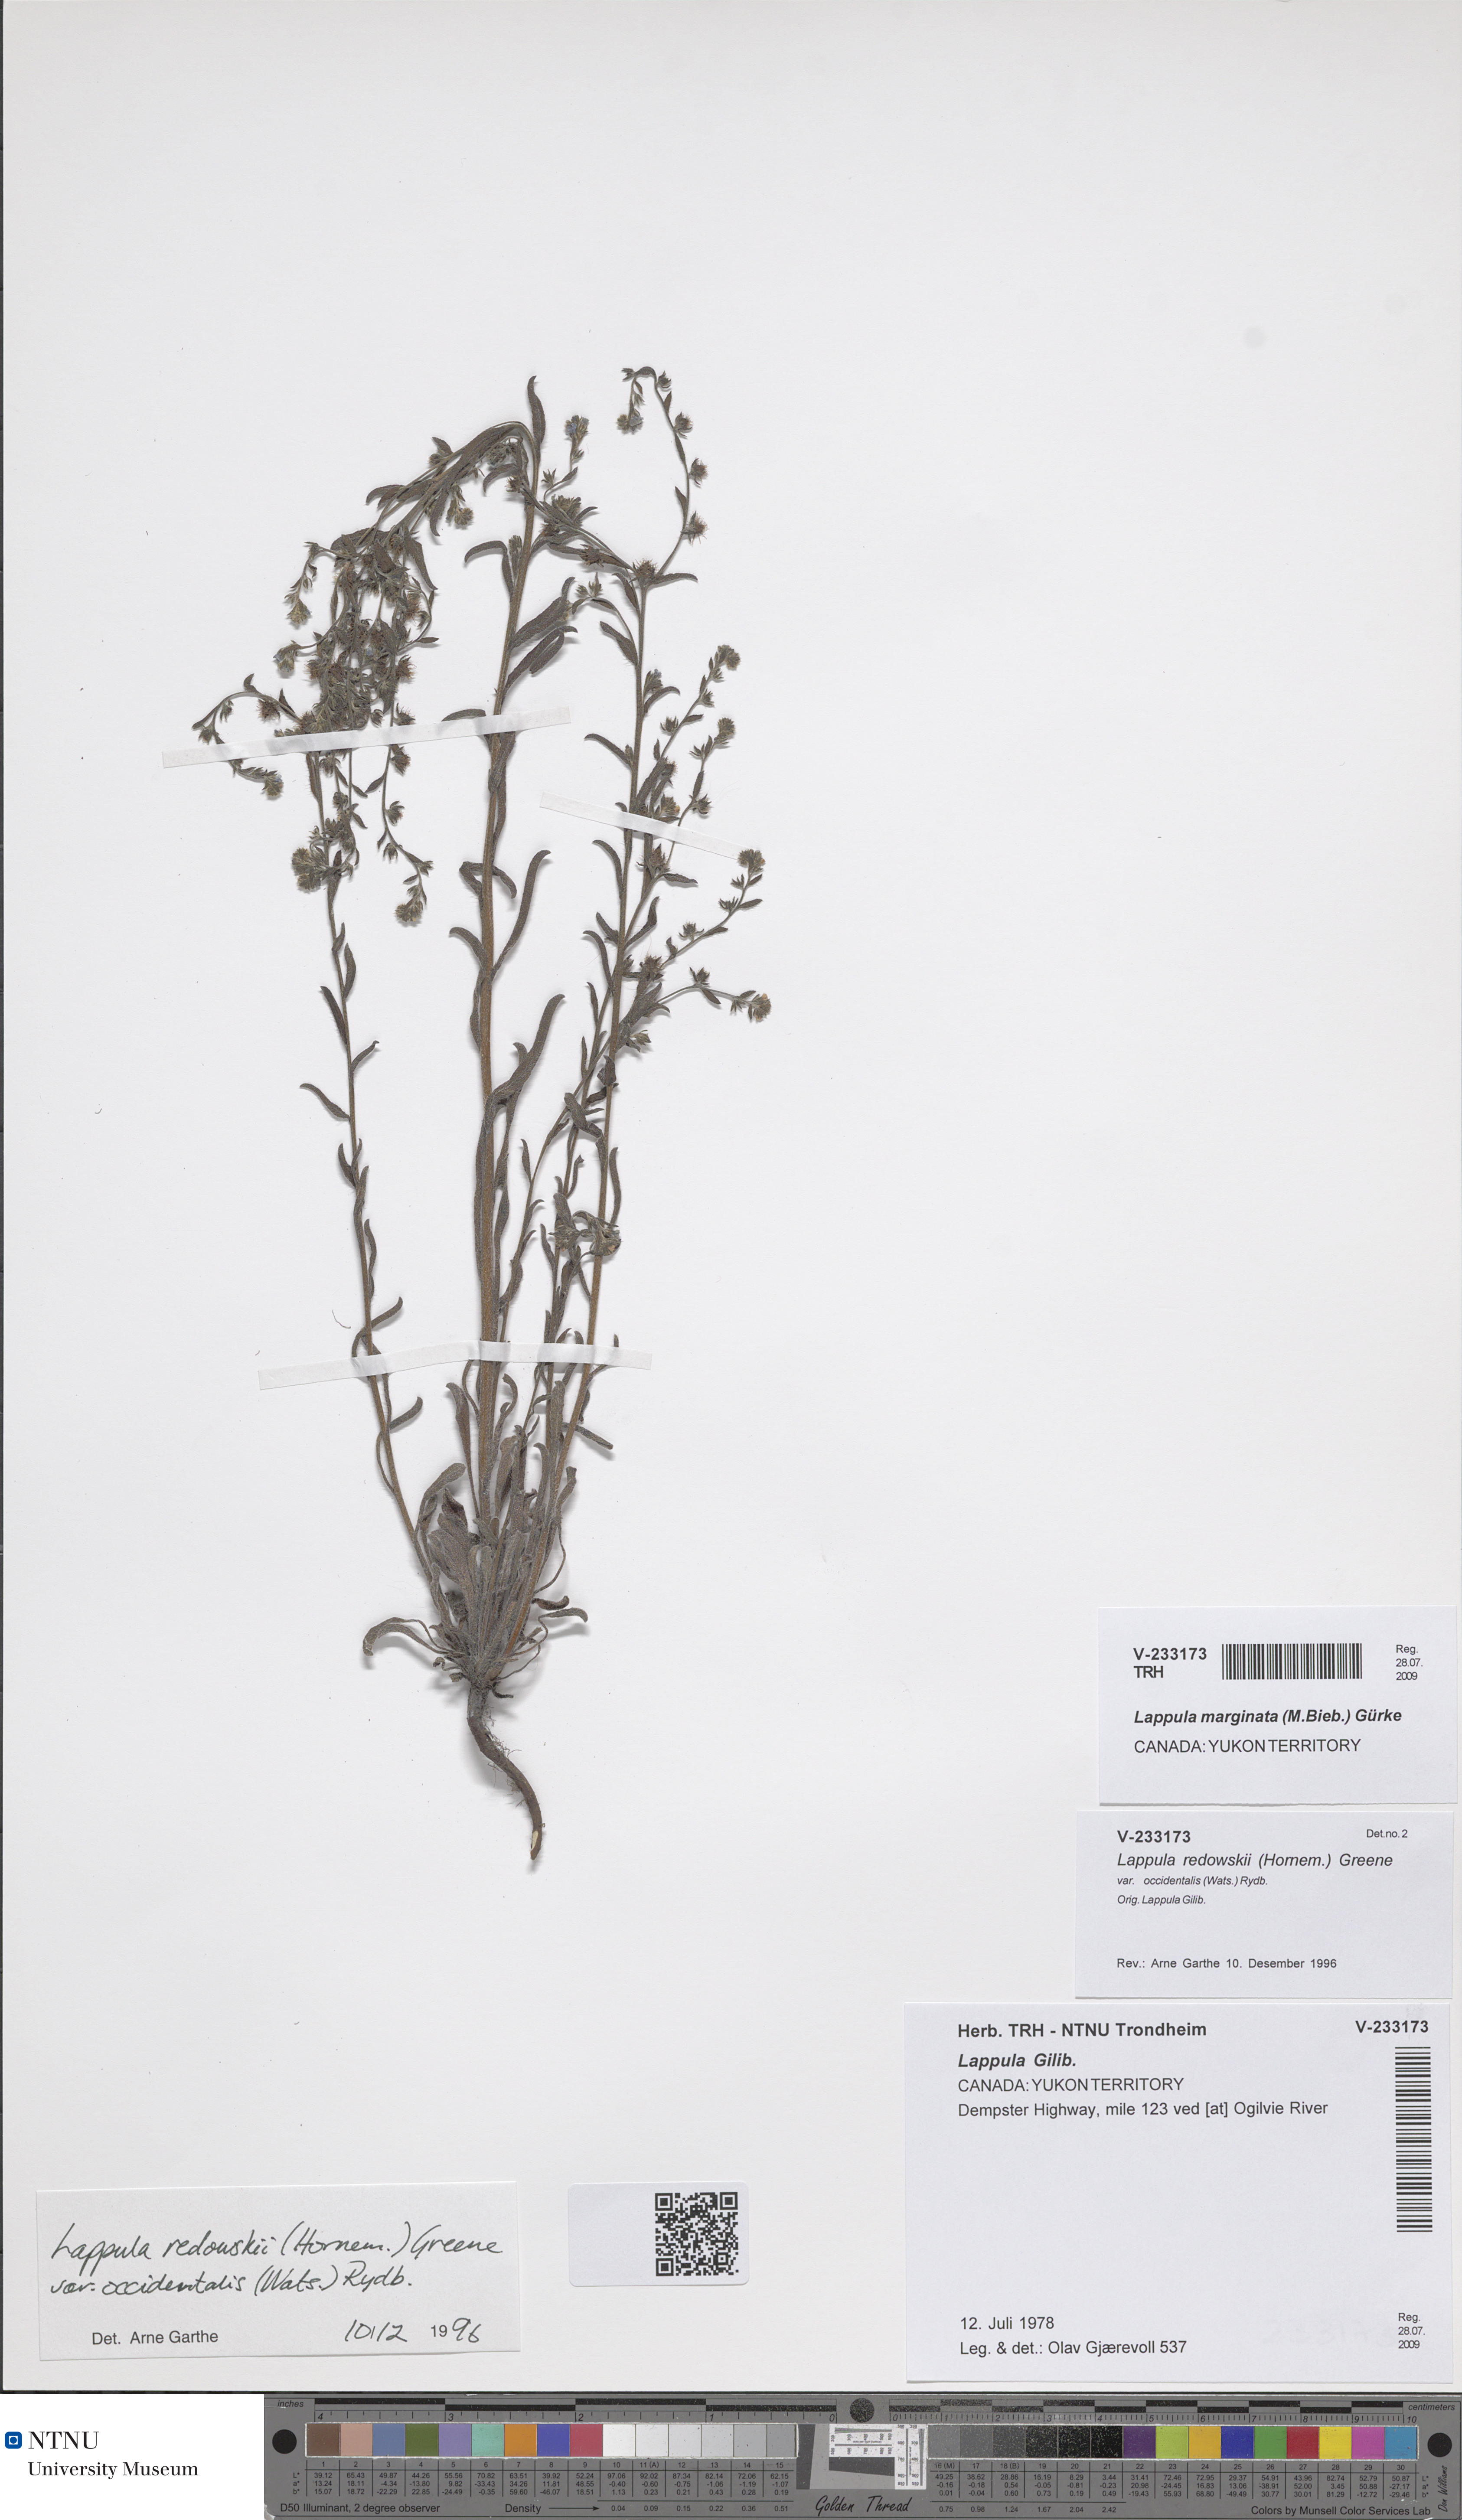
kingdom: Plantae
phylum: Tracheophyta
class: Magnoliopsida
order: Boraginales
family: Boraginaceae
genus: Lappula
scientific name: Lappula patula
